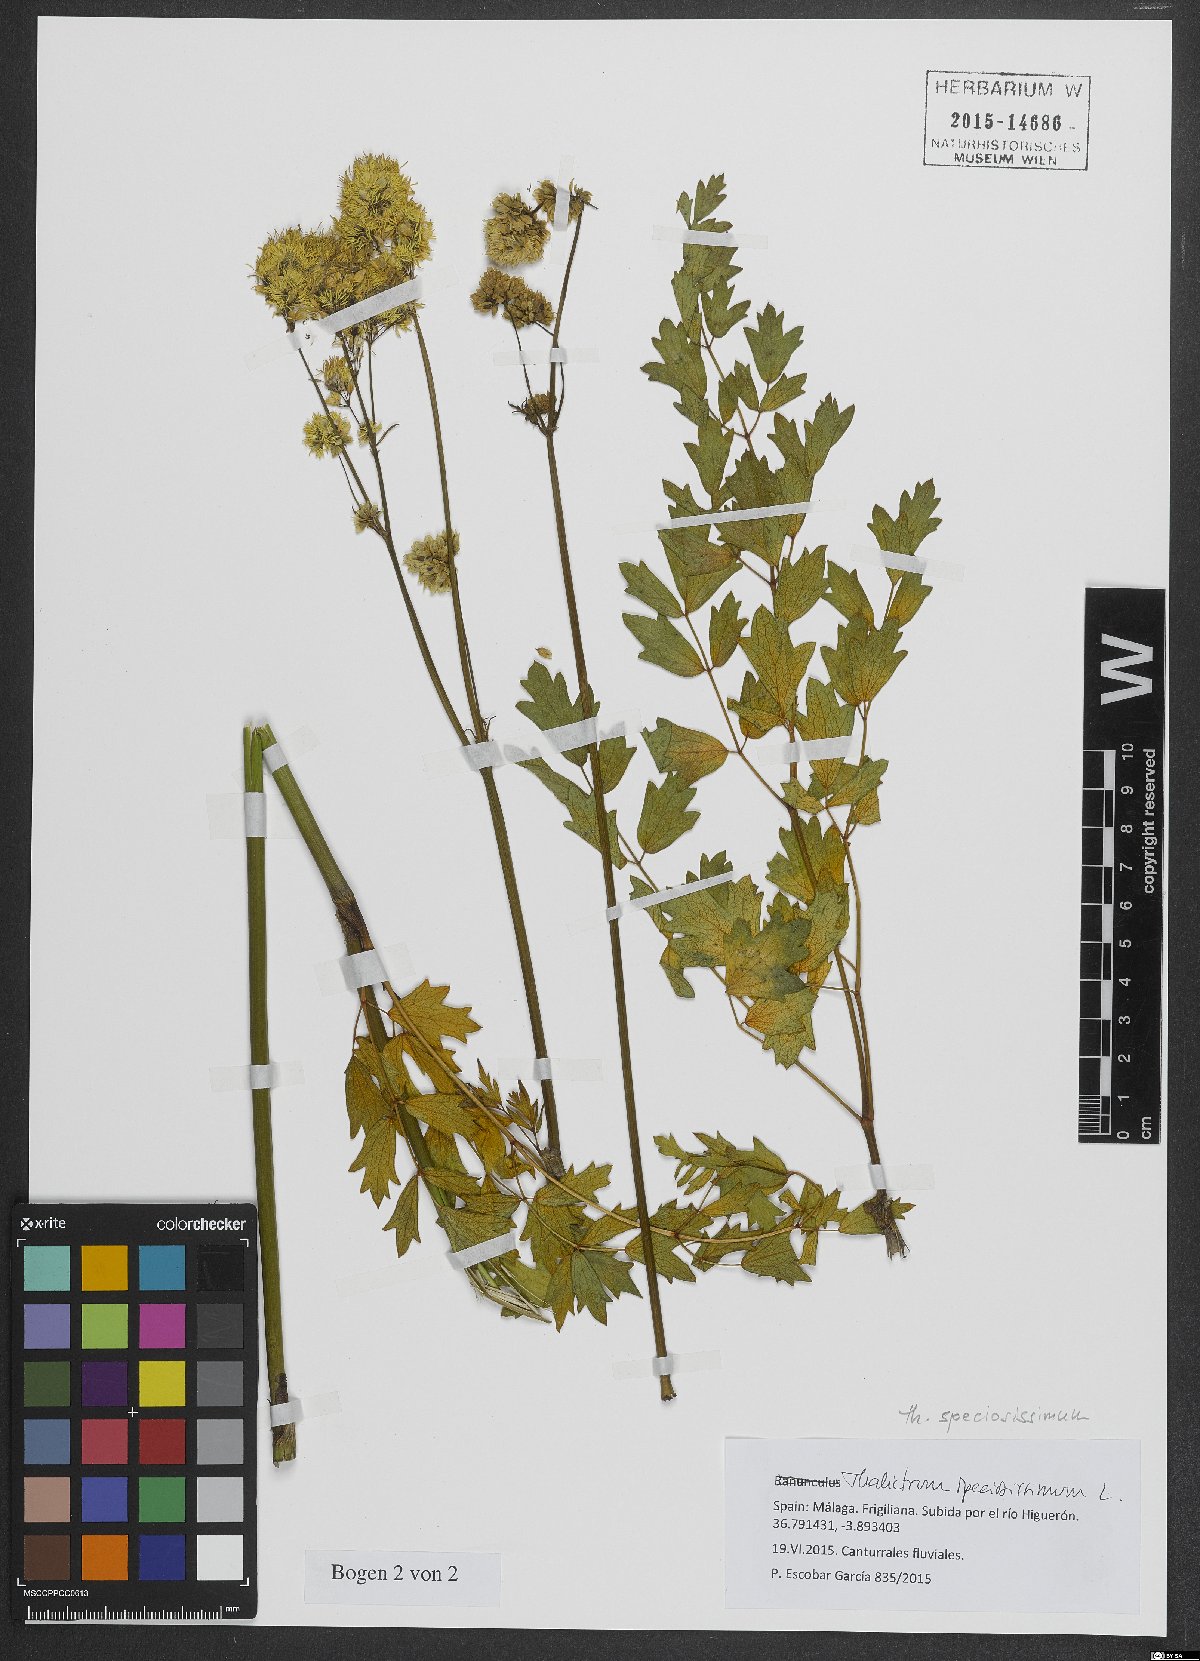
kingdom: Plantae
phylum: Tracheophyta
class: Magnoliopsida
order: Ranunculales
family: Ranunculaceae
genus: Thalictrum
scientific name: Thalictrum speciosissimum
